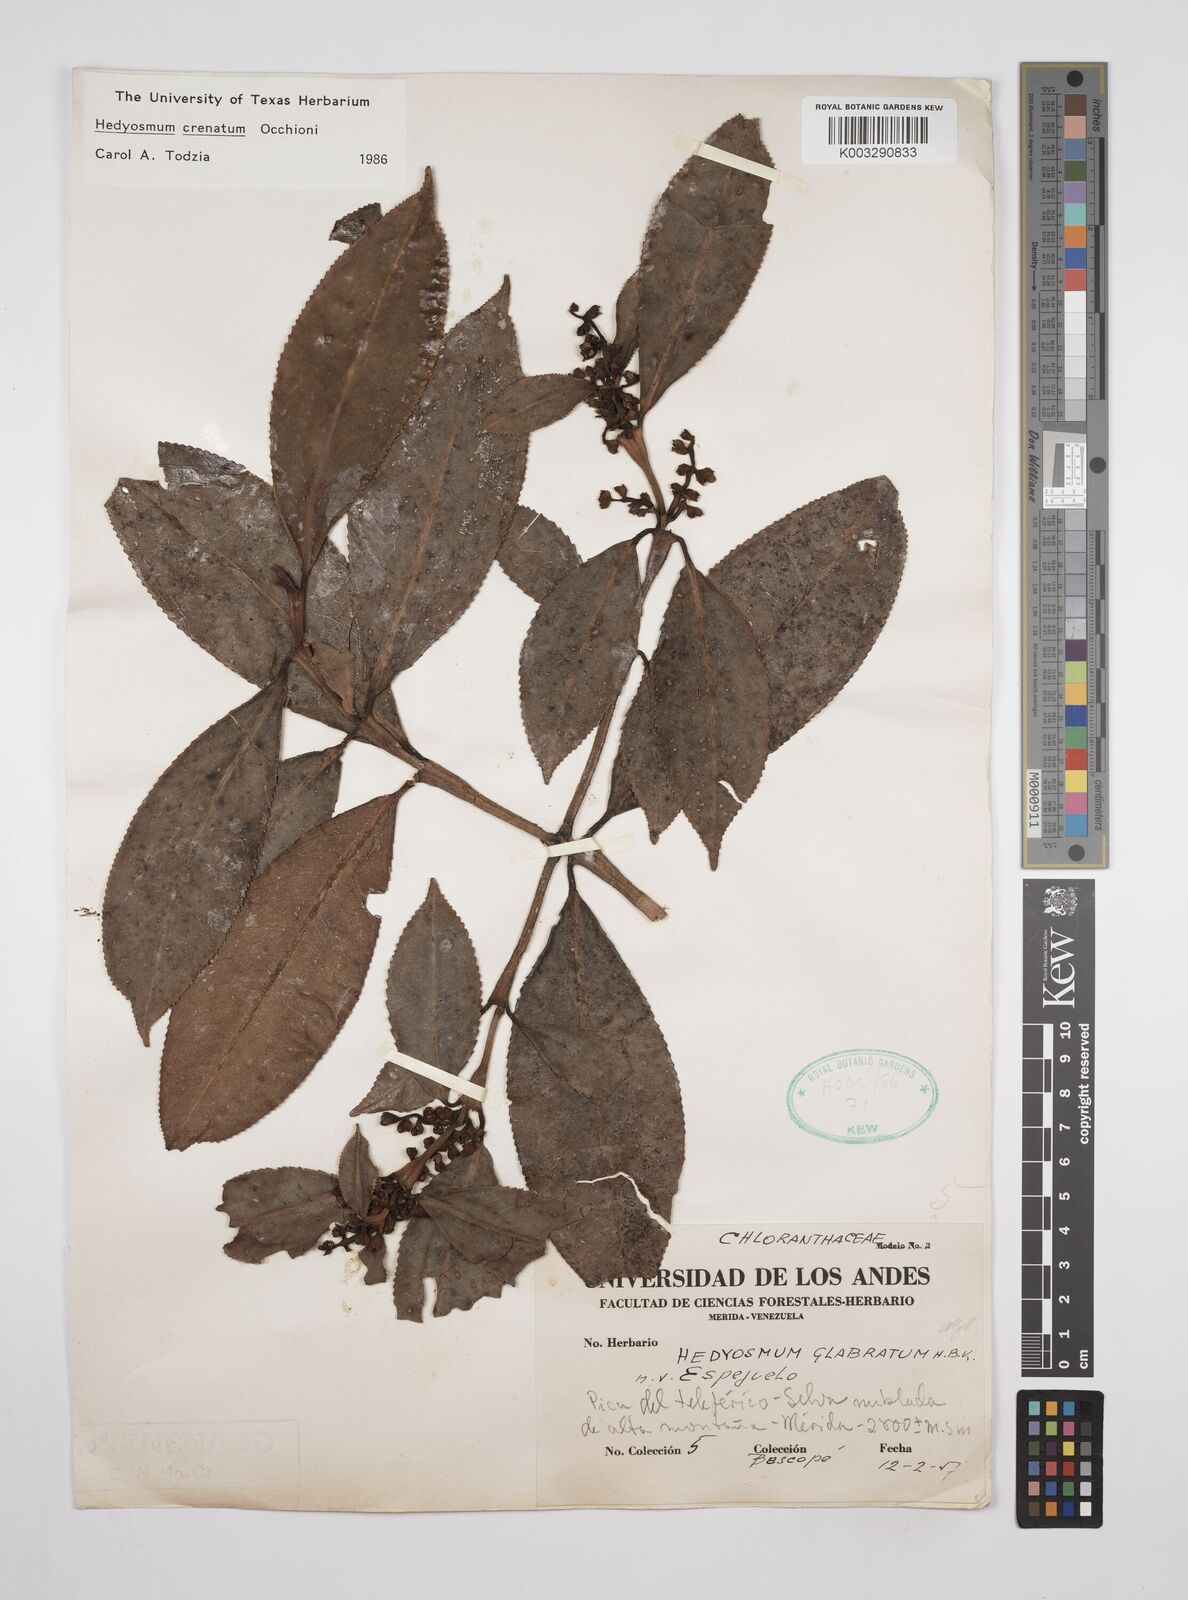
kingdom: Plantae
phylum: Tracheophyta
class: Magnoliopsida
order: Chloranthales
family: Chloranthaceae
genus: Hedyosmum
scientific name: Hedyosmum crenatum
